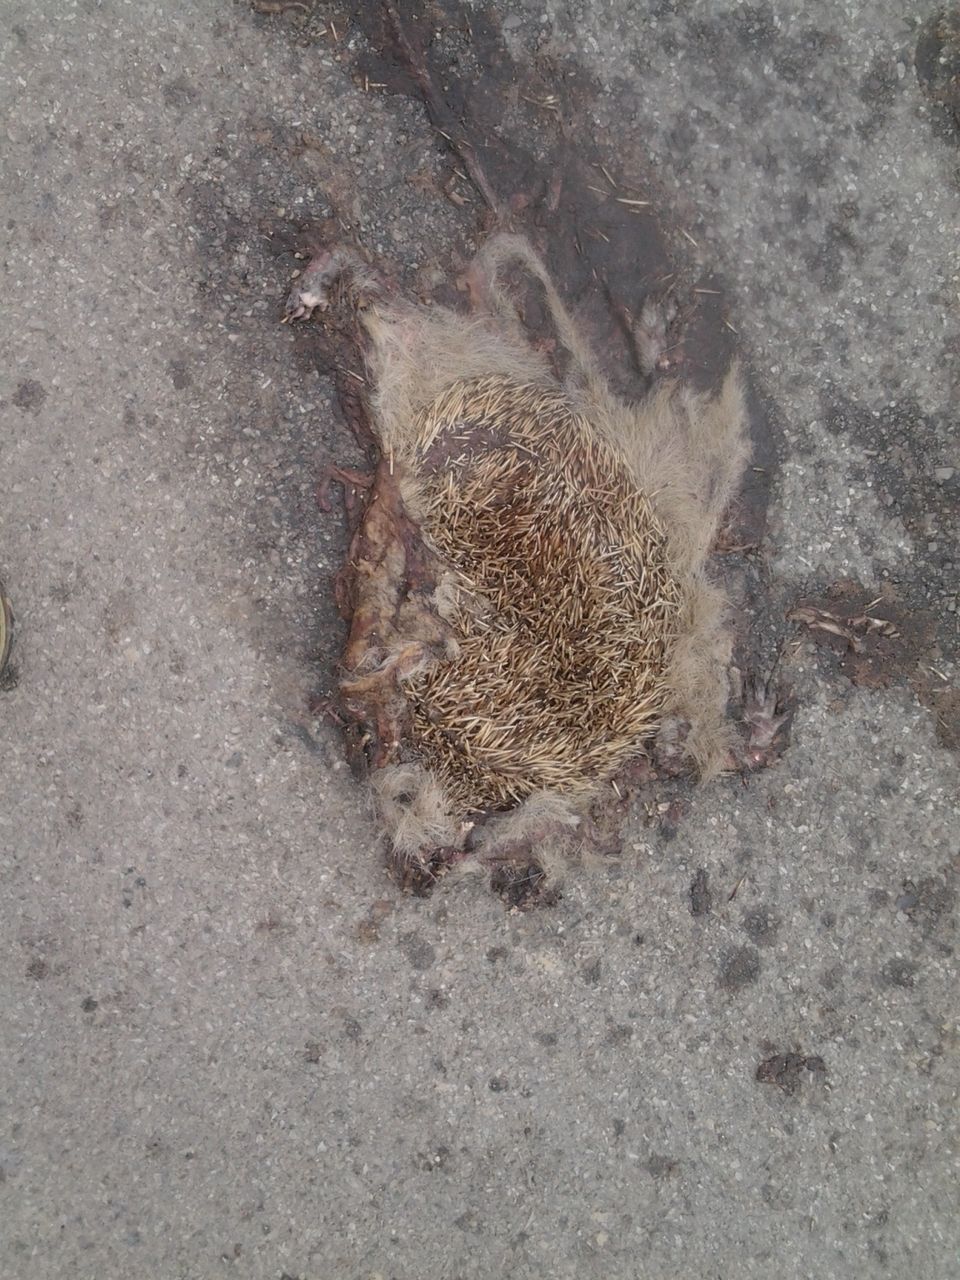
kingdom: Animalia
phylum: Chordata
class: Mammalia
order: Erinaceomorpha
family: Erinaceidae
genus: Erinaceus
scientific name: Erinaceus
